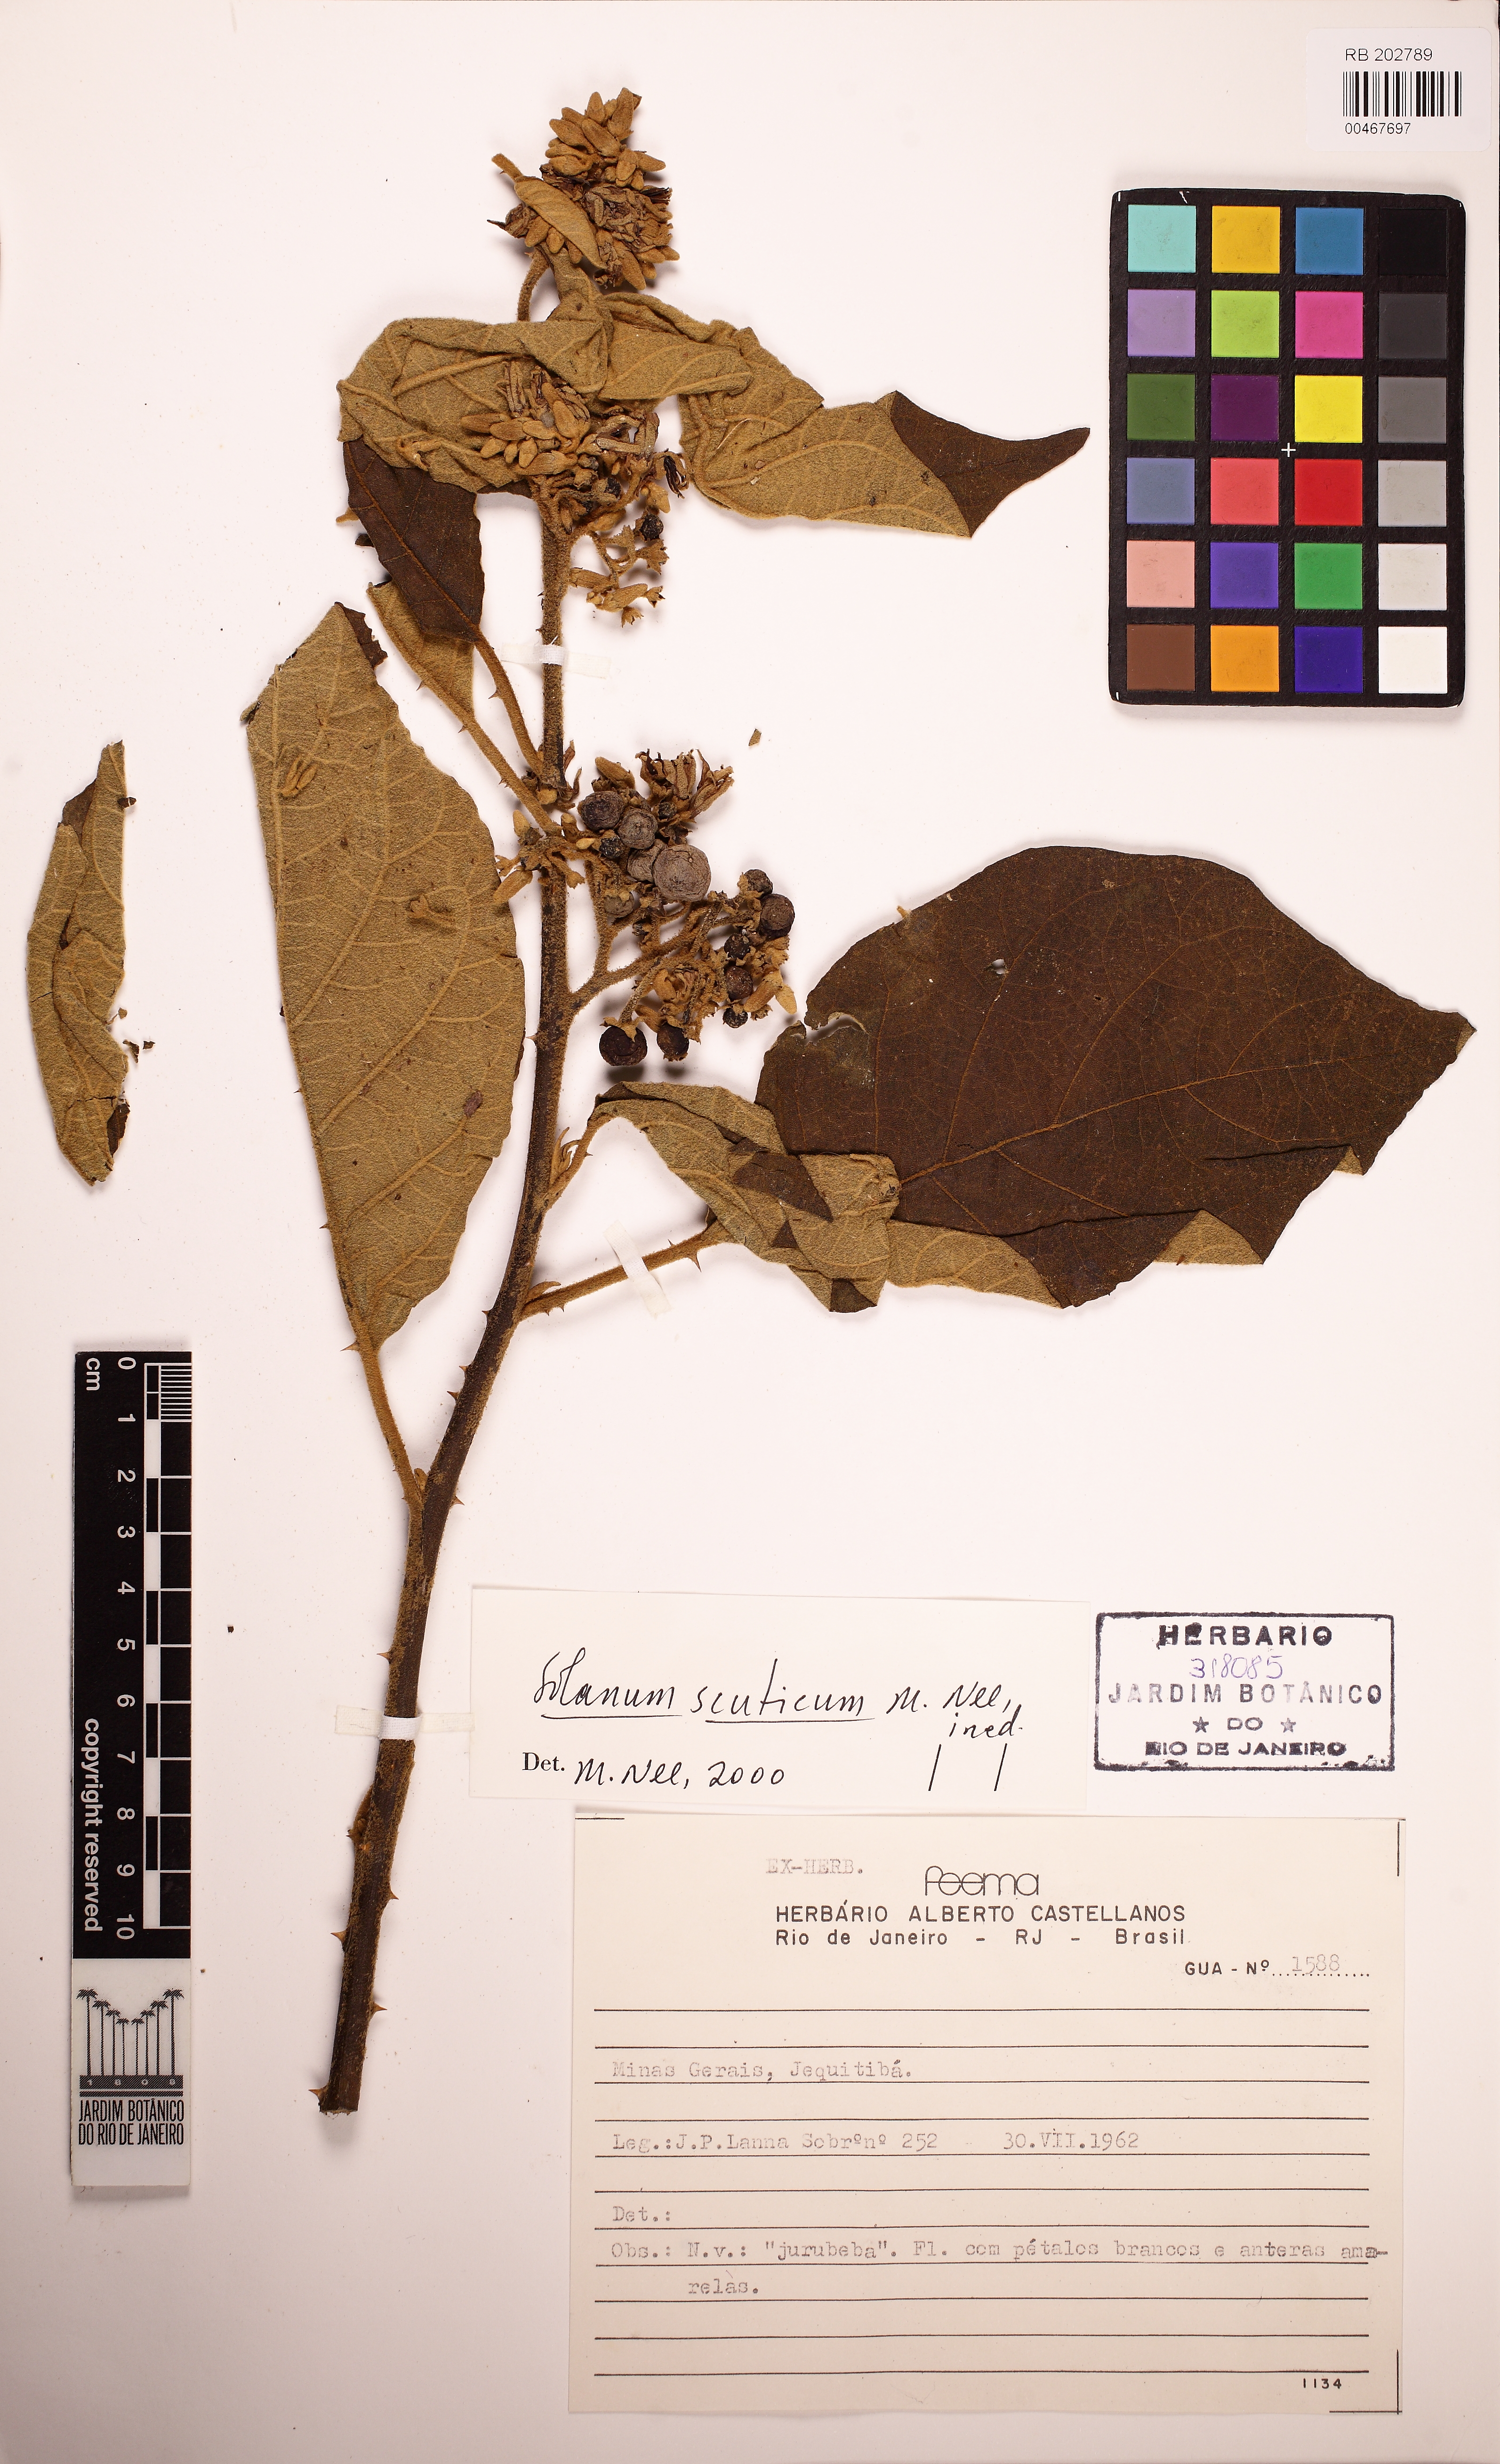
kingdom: Plantae
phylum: Tracheophyta
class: Magnoliopsida
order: Solanales
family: Solanaceae
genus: Solanum
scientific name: Solanum scuticum
